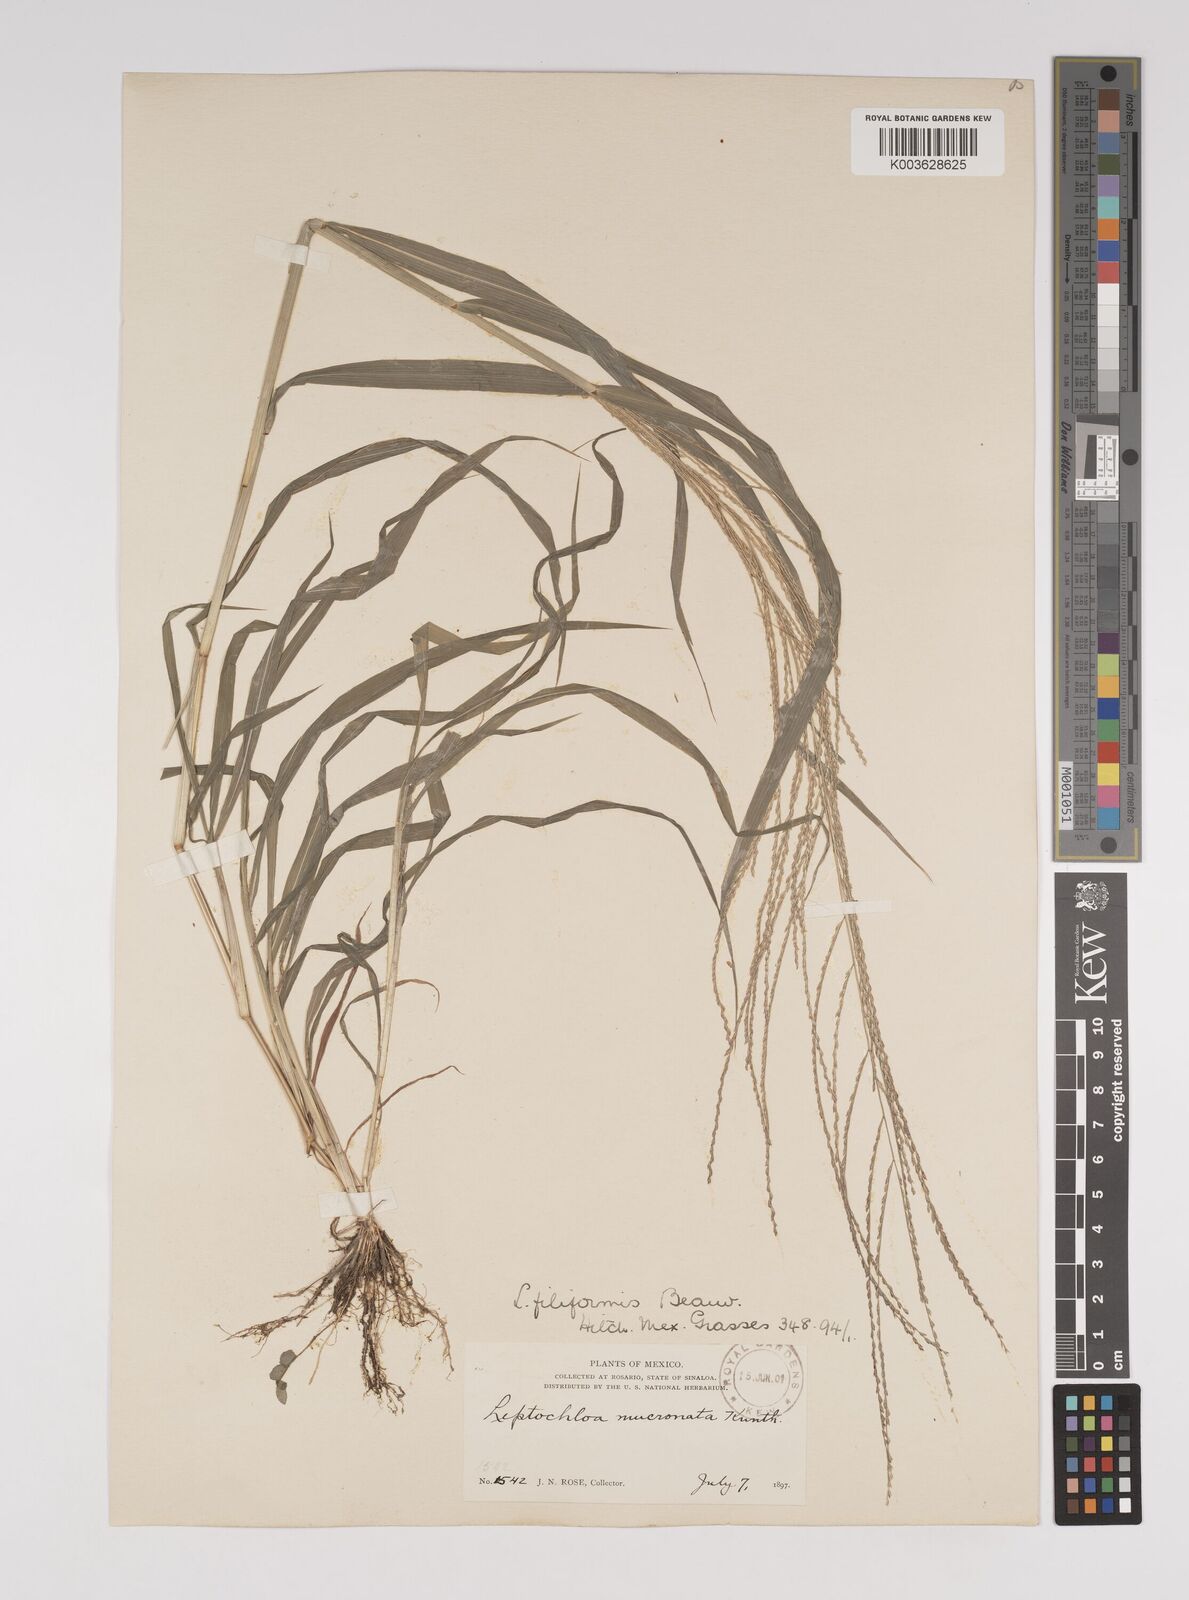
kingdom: Plantae
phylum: Tracheophyta
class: Liliopsida
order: Poales
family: Poaceae
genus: Leptochloa
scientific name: Leptochloa panicea
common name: Mucronate sprangletop
